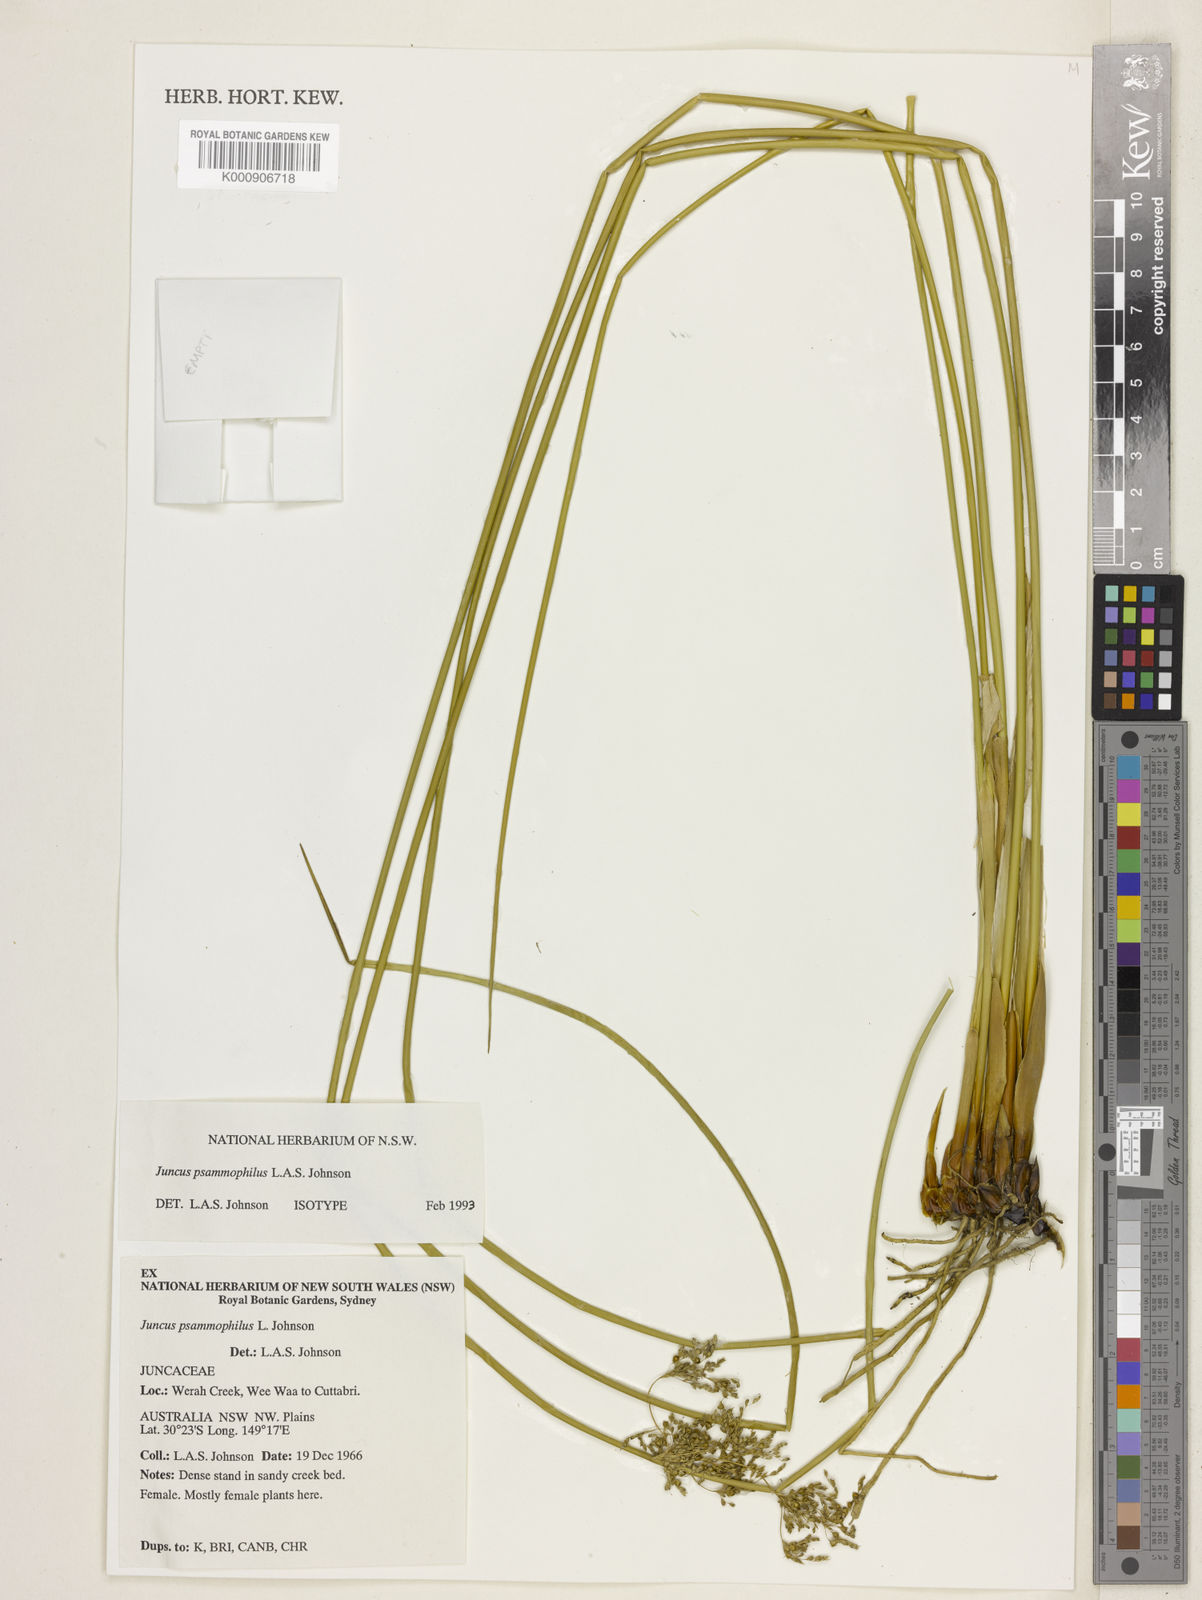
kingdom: Plantae
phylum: Tracheophyta
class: Liliopsida
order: Poales
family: Juncaceae
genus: Juncus
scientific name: Juncus psammophilus
